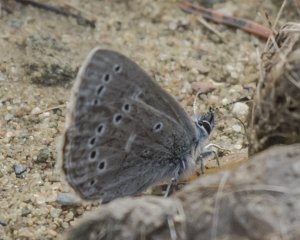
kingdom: Animalia
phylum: Arthropoda
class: Insecta
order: Lepidoptera
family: Lycaenidae
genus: Glaucopsyche
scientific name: Glaucopsyche lygdamus
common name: Silvery Blue
